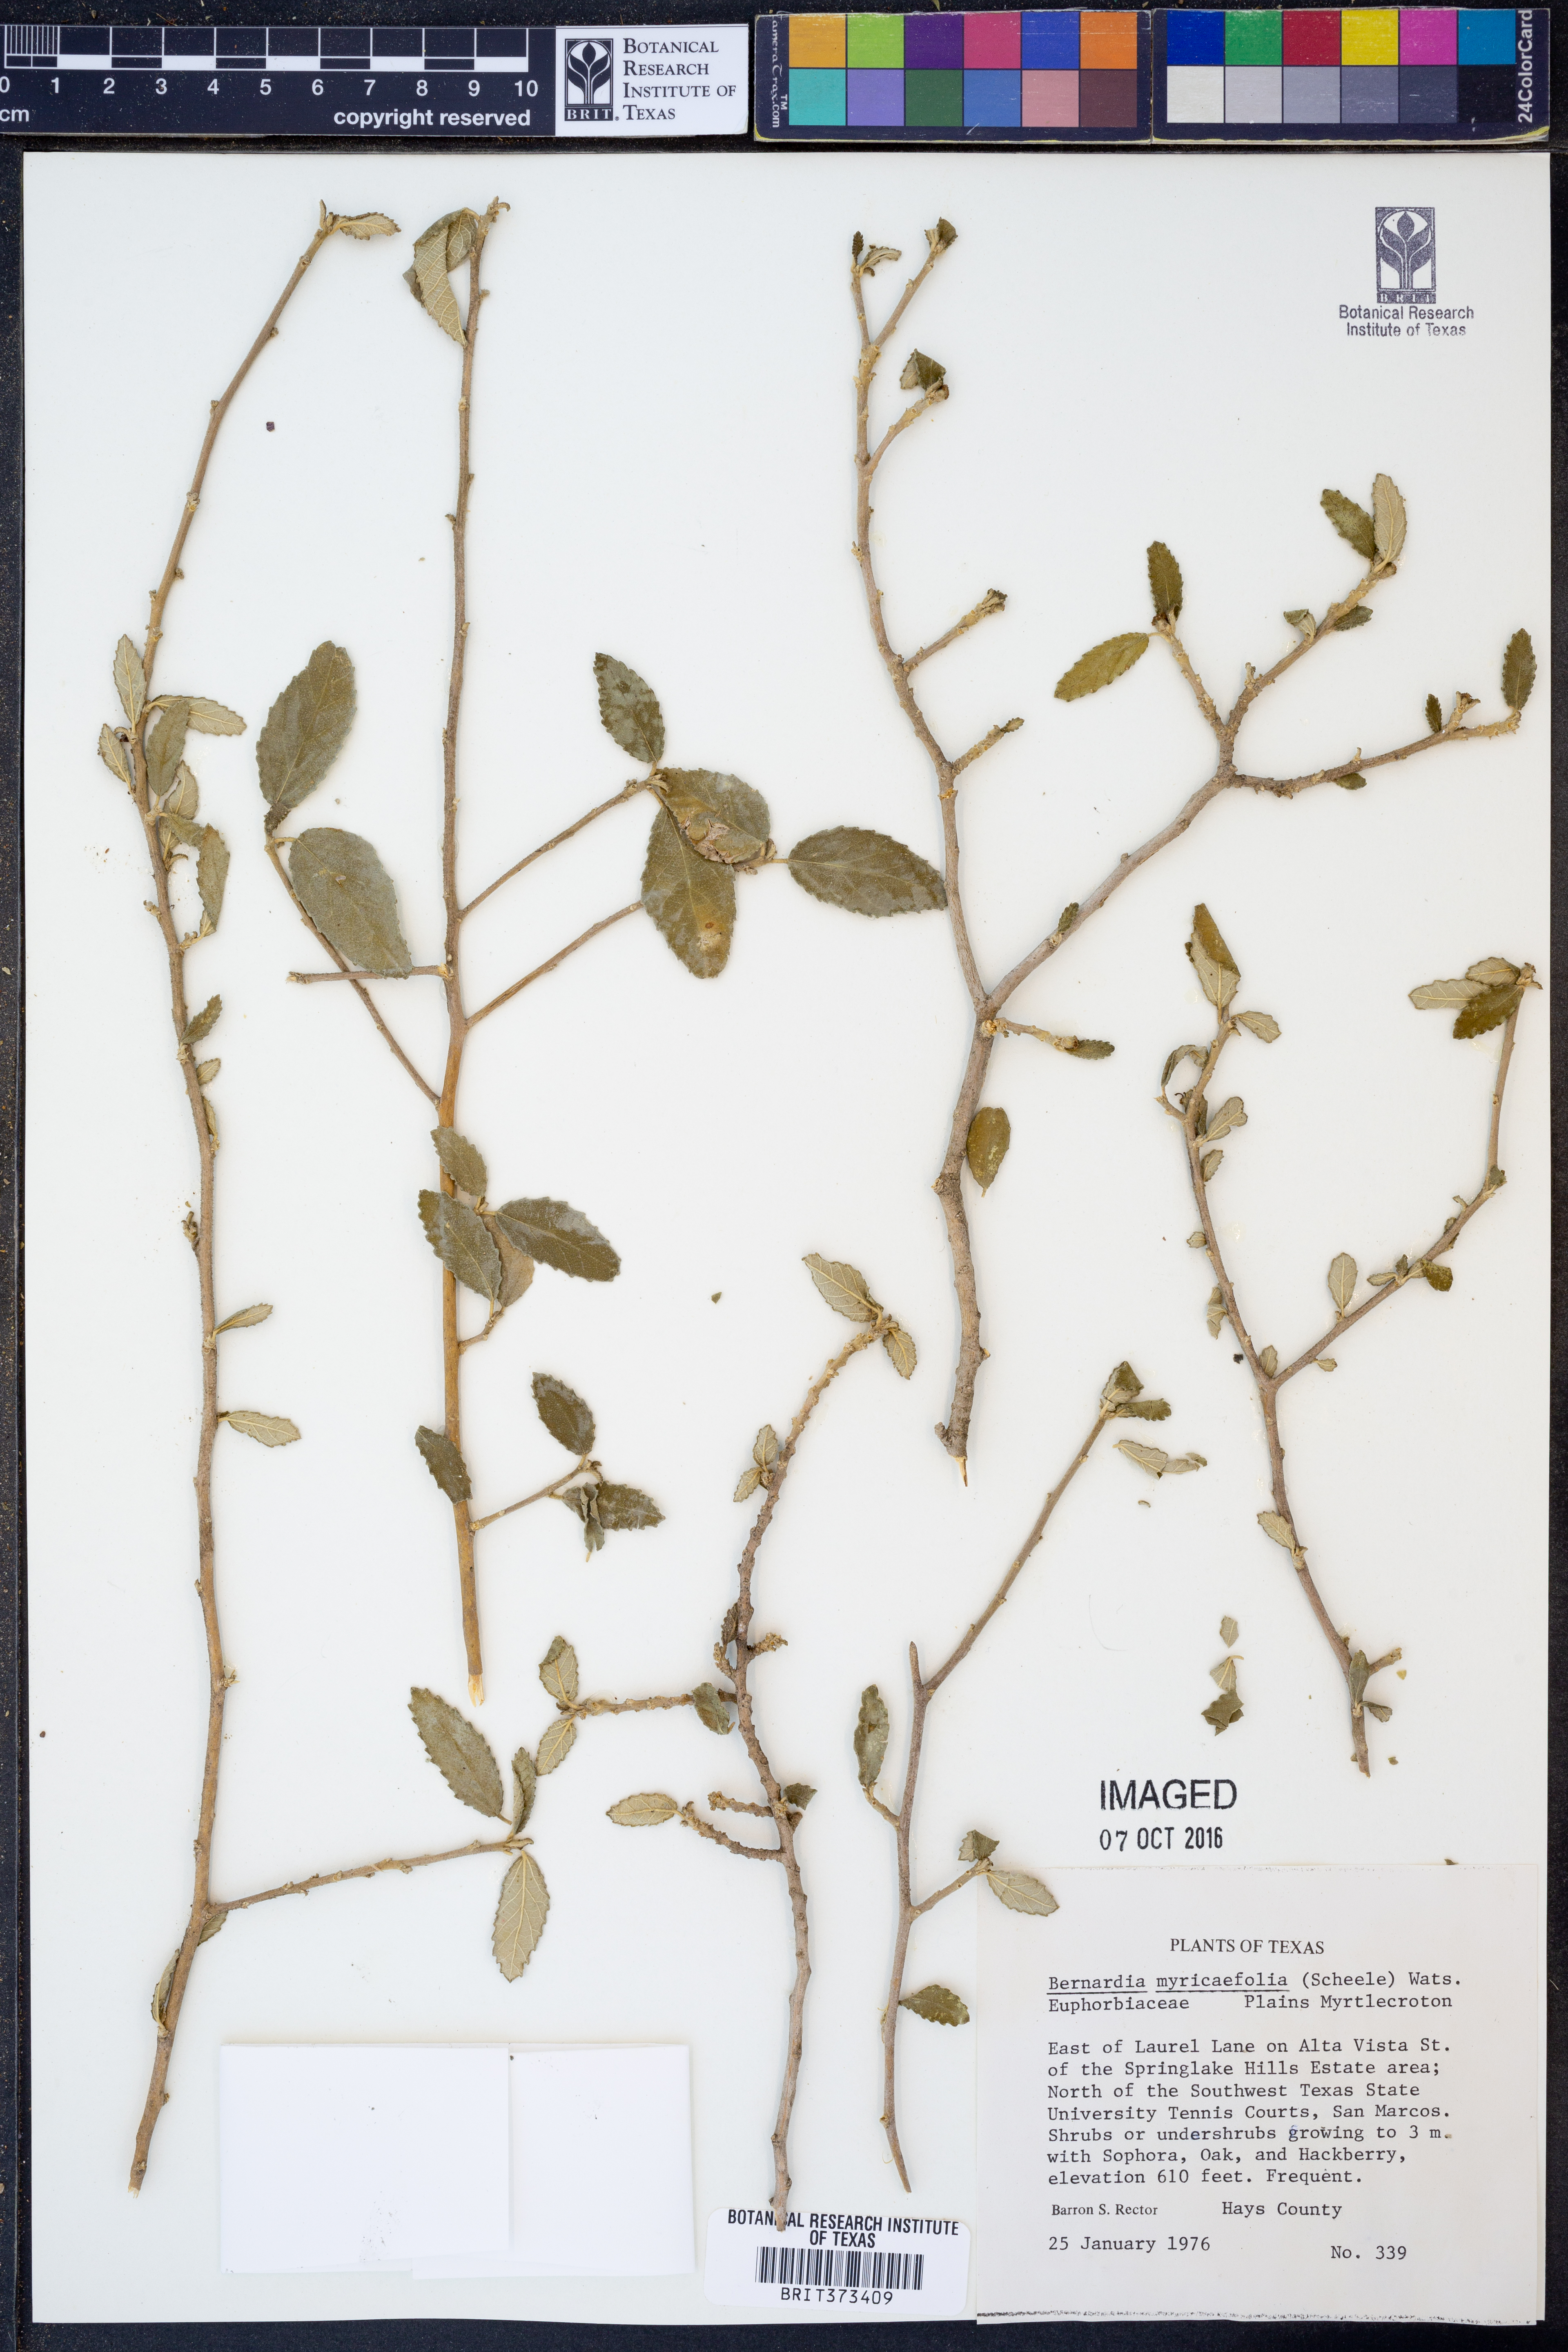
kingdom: Plantae
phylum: Tracheophyta
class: Magnoliopsida
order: Malpighiales
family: Euphorbiaceae
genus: Bernardia
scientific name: Bernardia myricifolia
